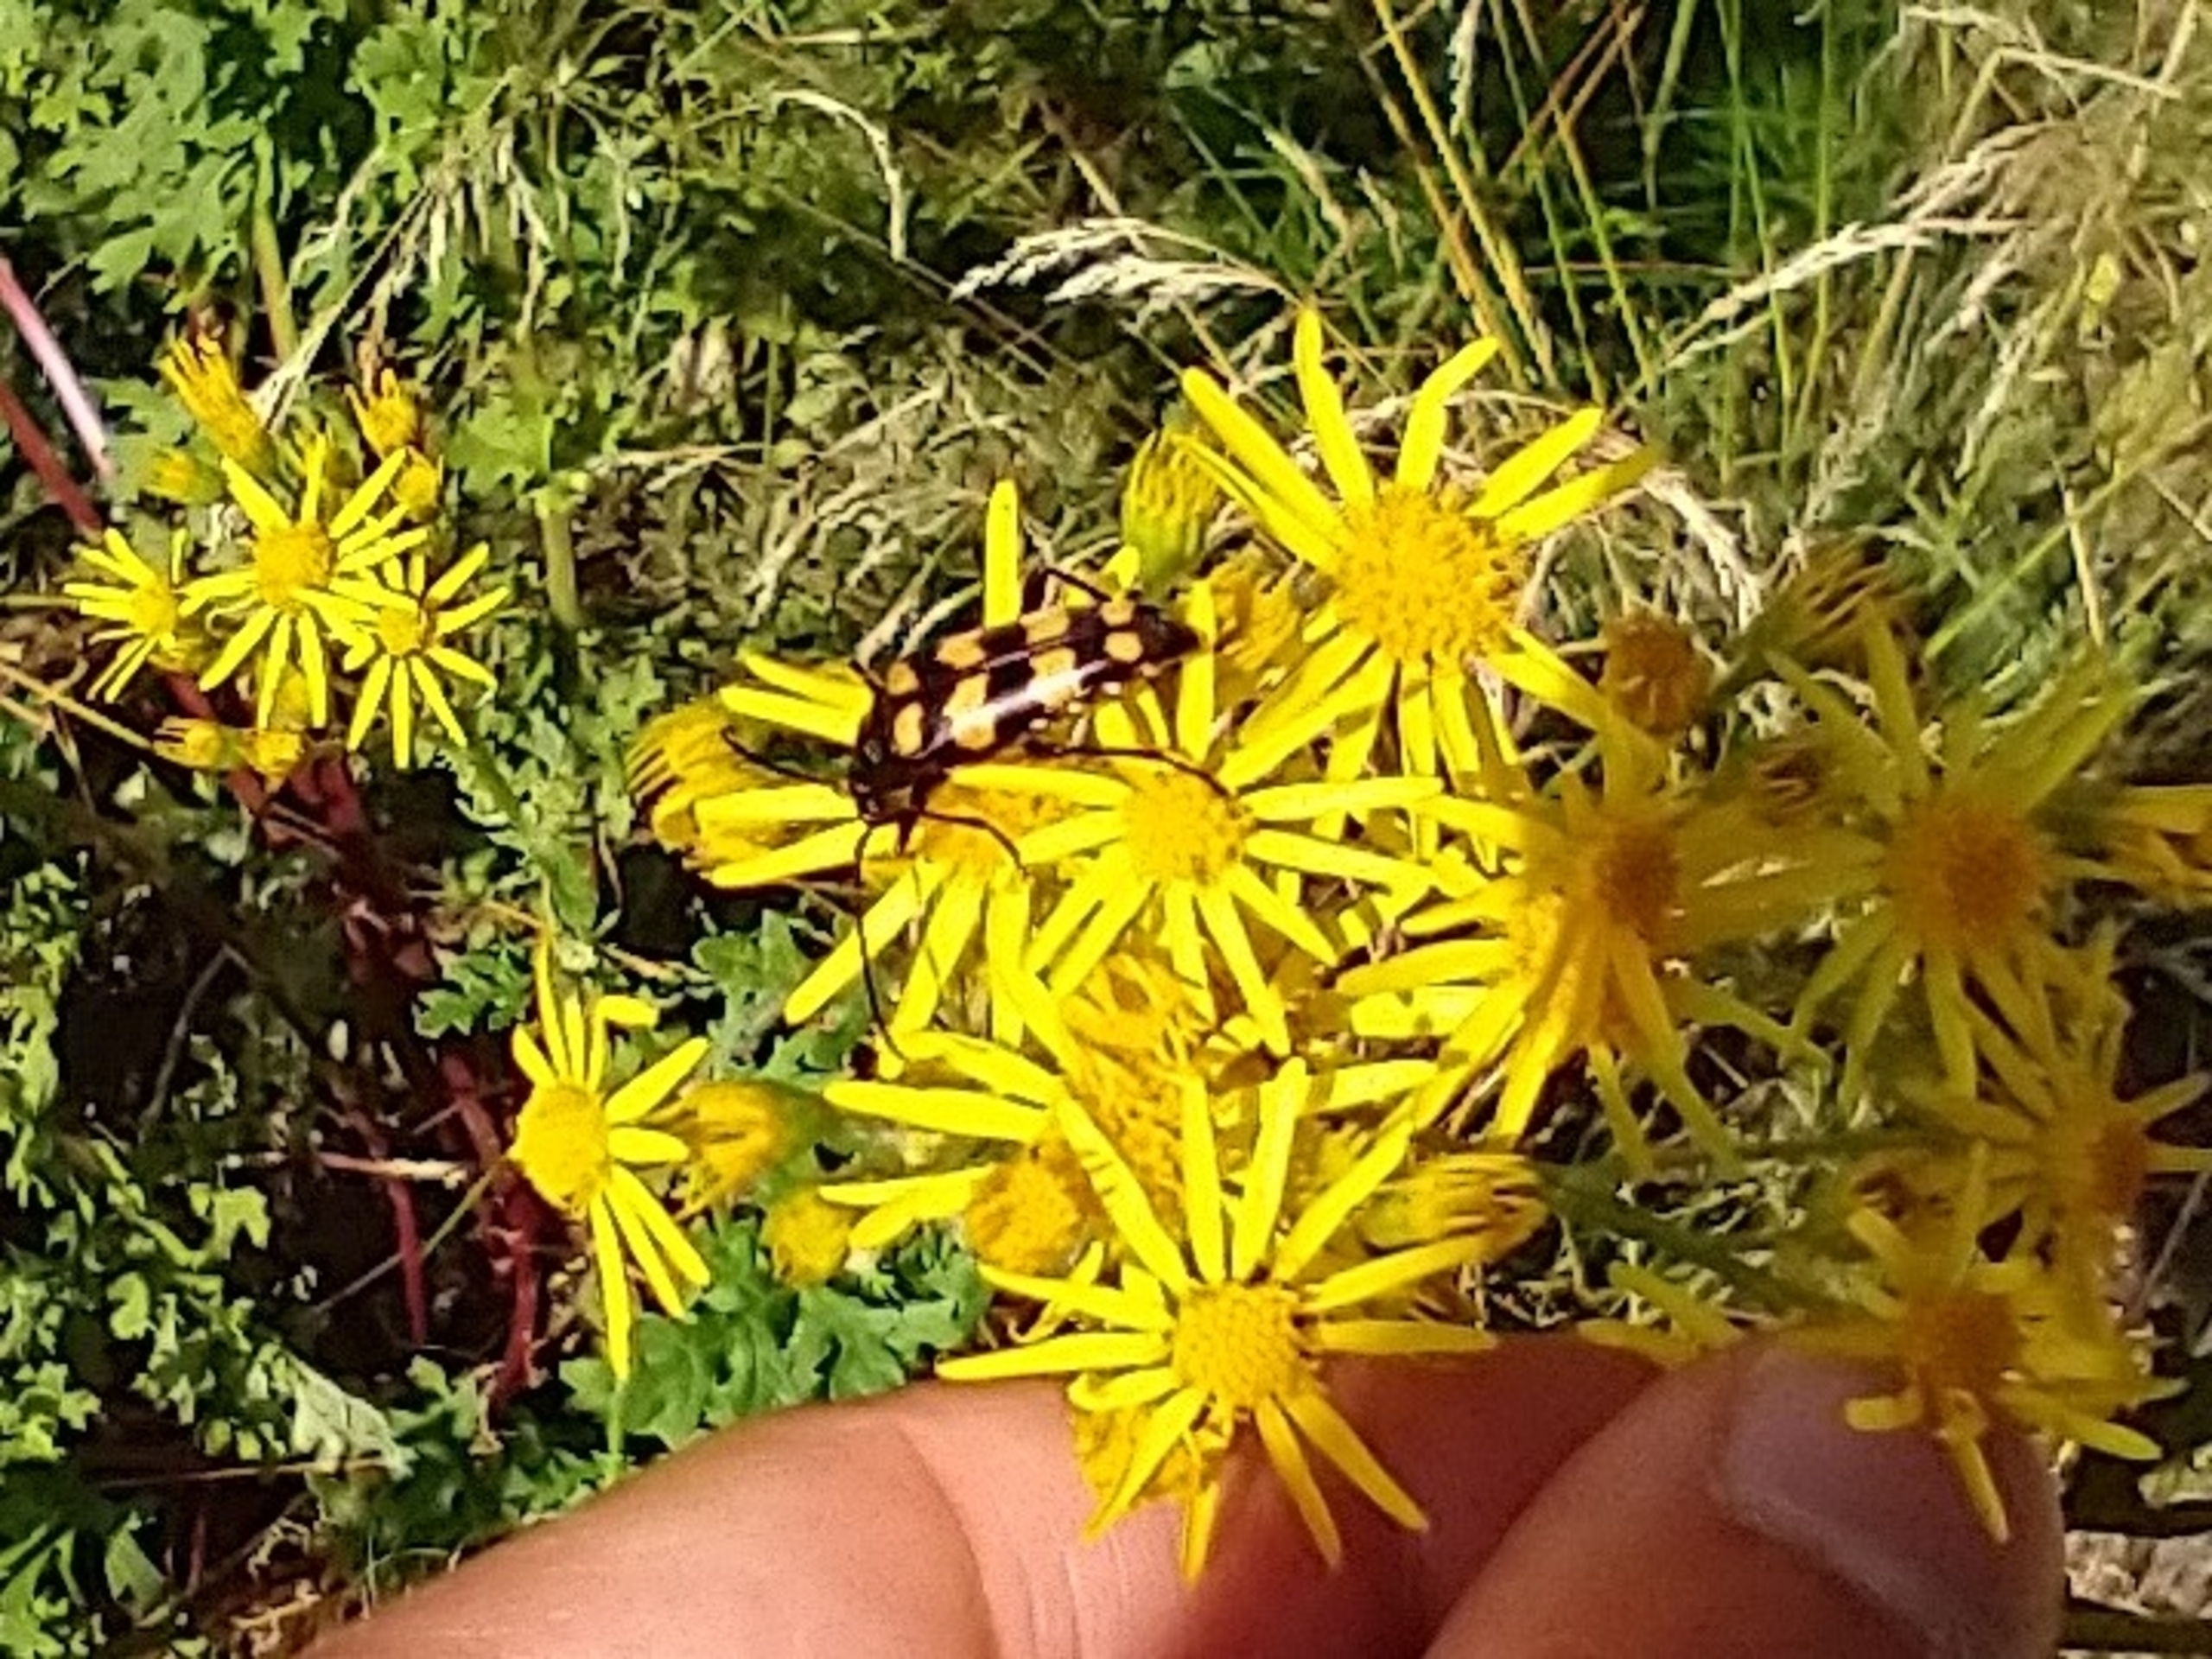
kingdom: Animalia
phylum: Arthropoda
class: Insecta
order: Coleoptera
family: Cerambycidae
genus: Leptura
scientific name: Leptura quadrifasciata
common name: Firebåndet blomsterbuk
